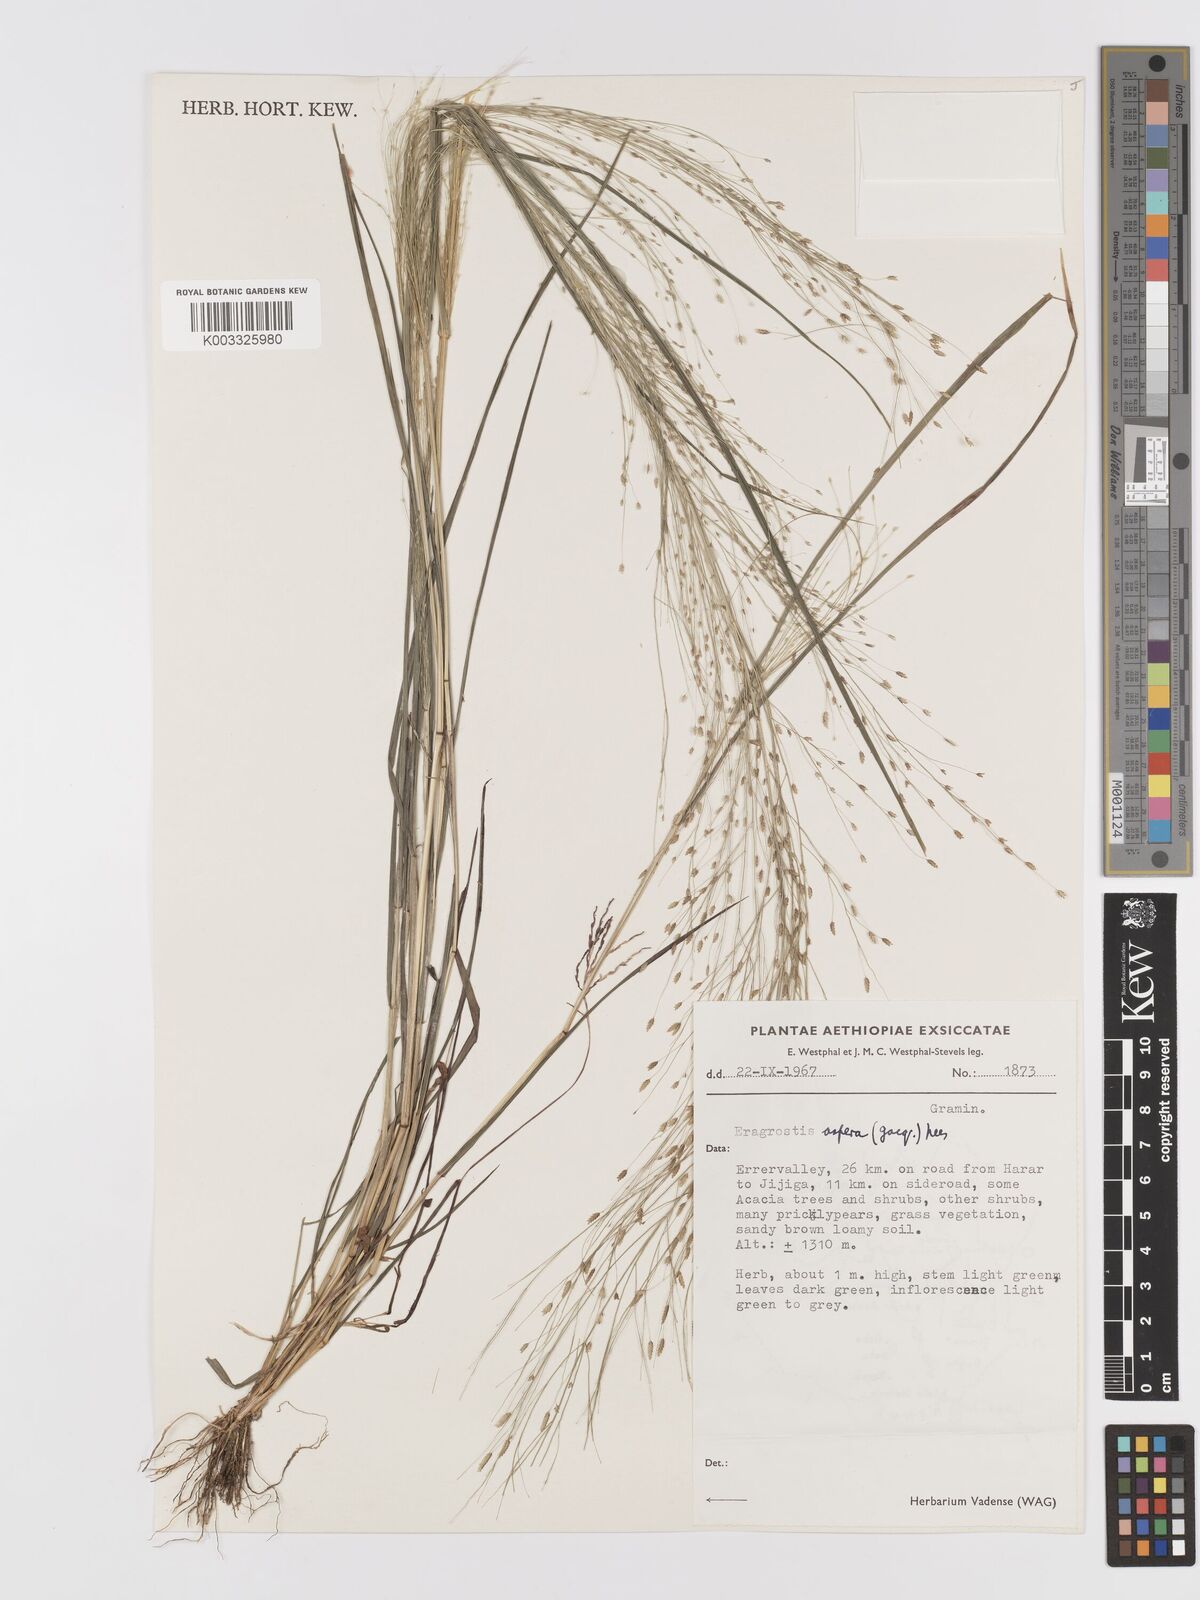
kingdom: Plantae
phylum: Tracheophyta
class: Liliopsida
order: Poales
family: Poaceae
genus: Eragrostis
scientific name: Eragrostis aspera
